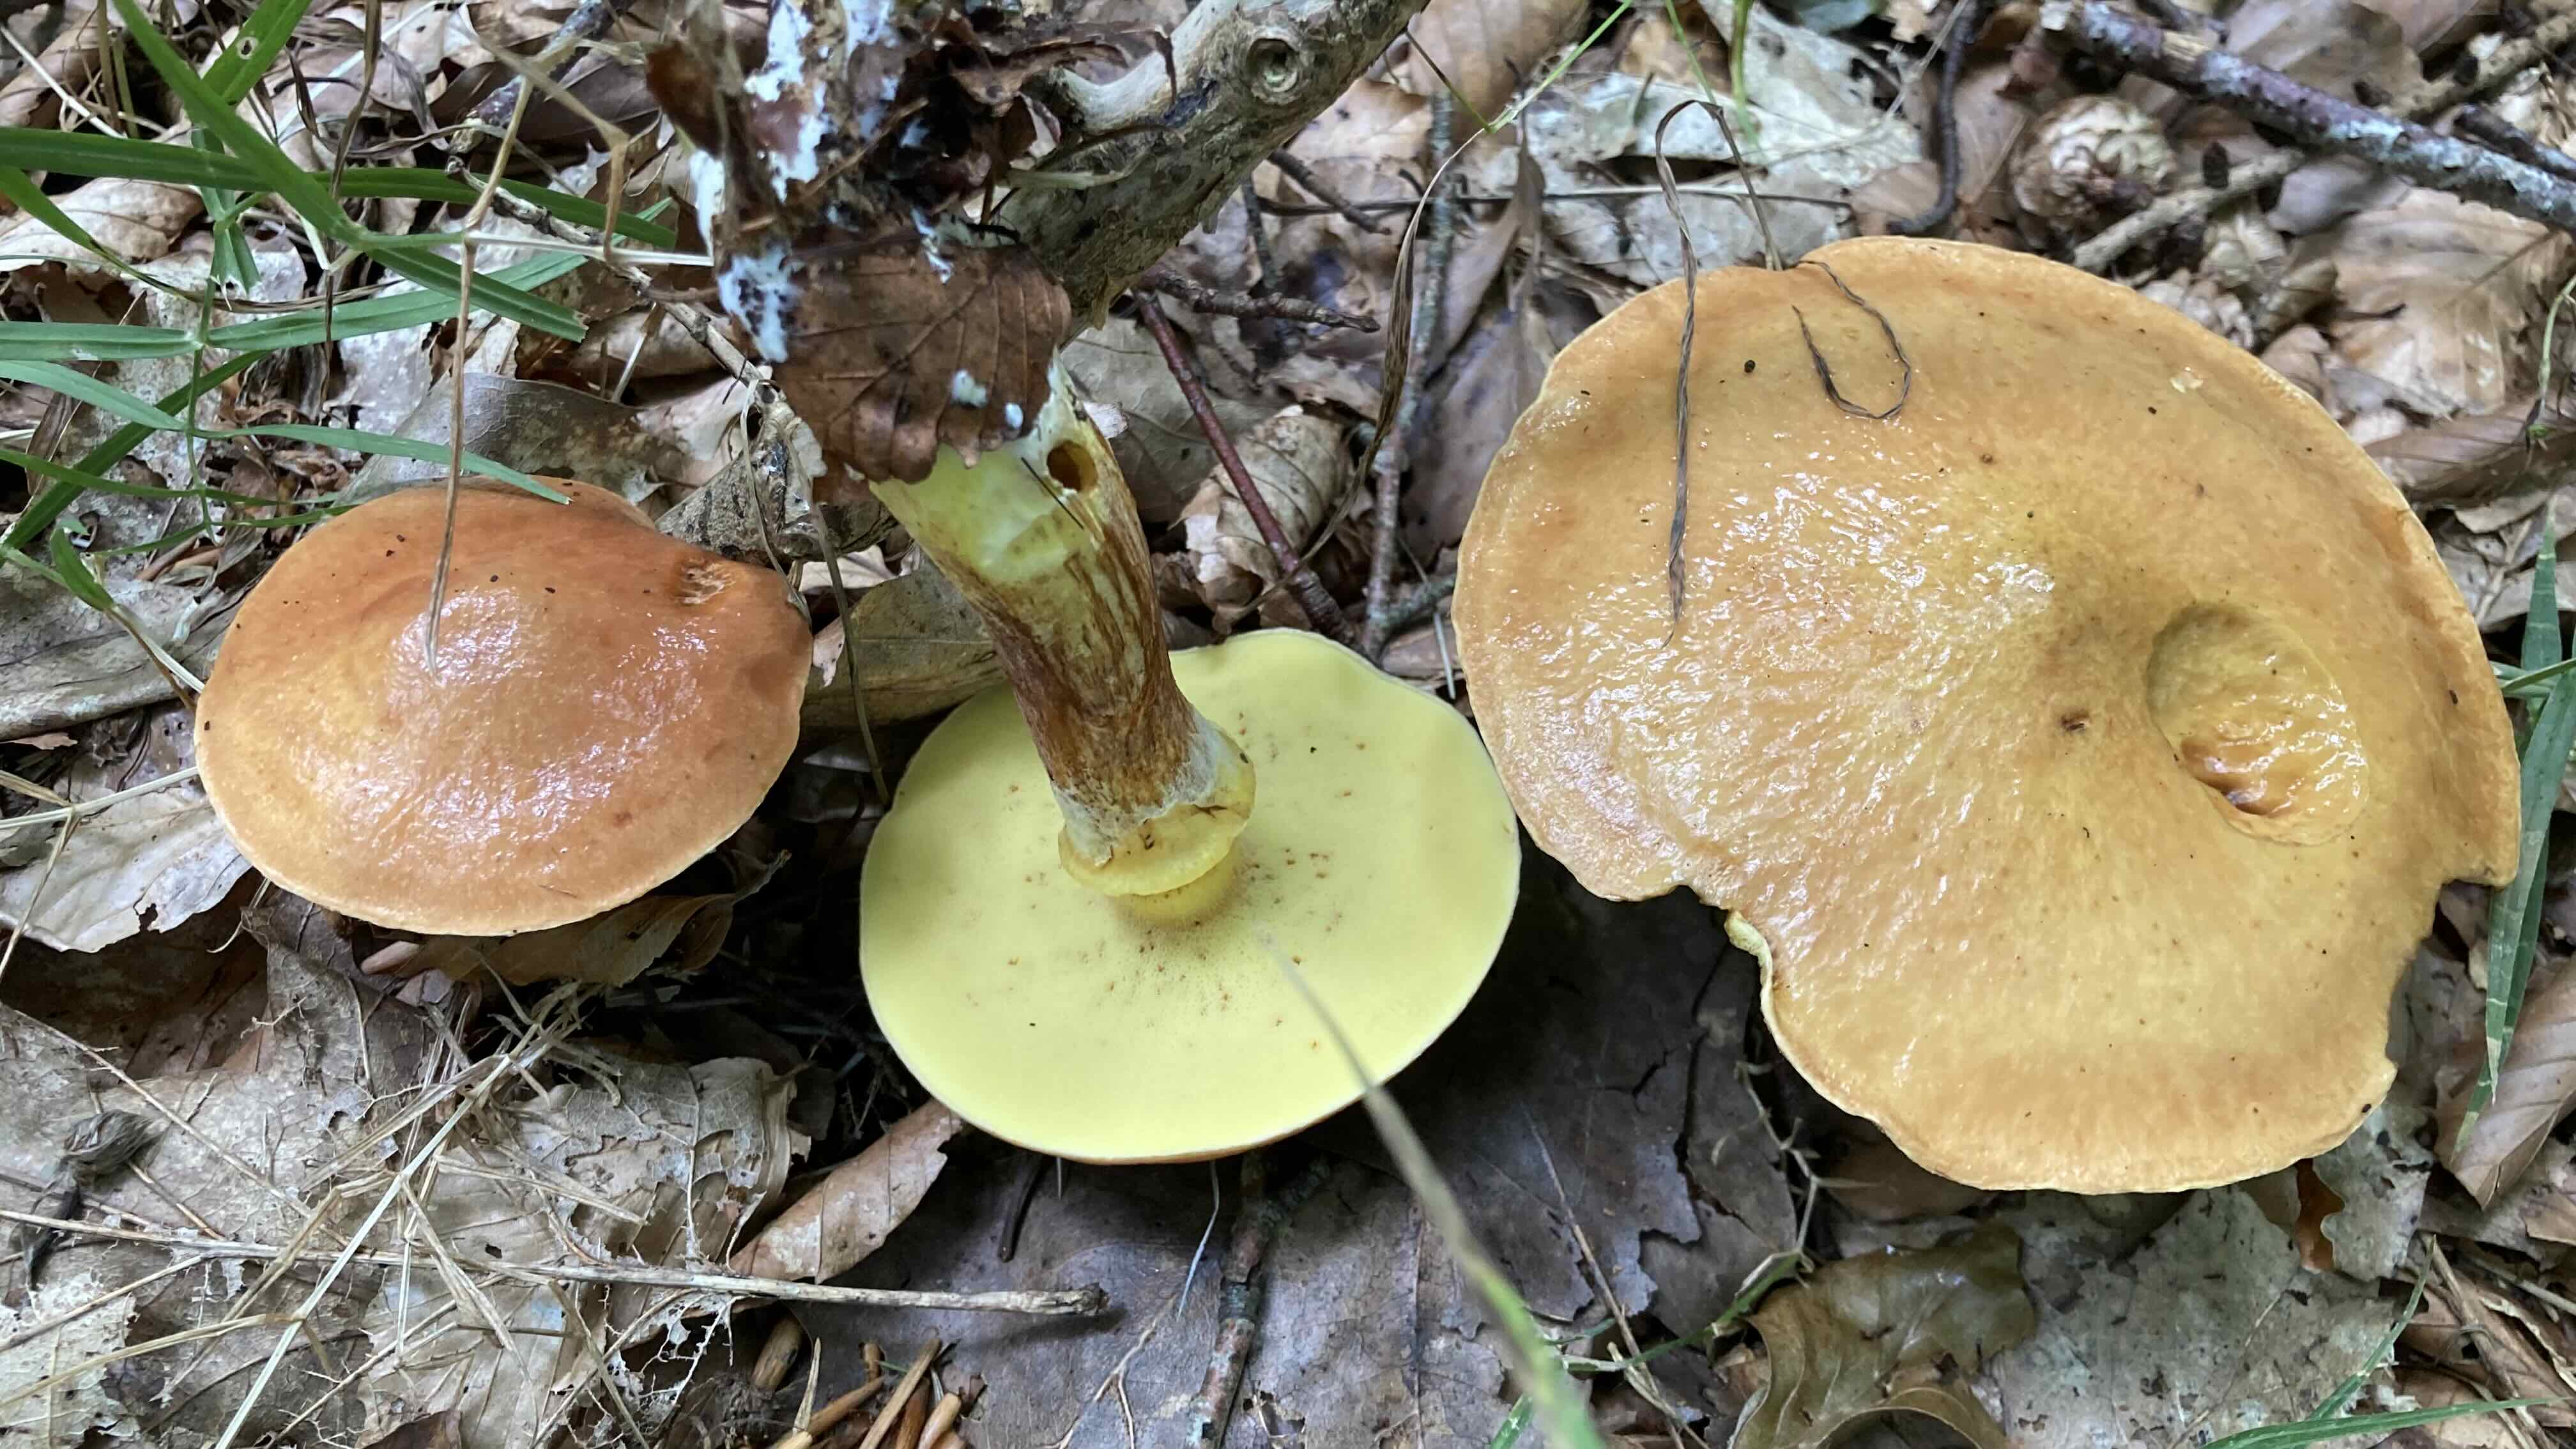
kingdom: Fungi
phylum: Basidiomycota
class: Agaricomycetes
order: Boletales
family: Suillaceae
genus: Suillus
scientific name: Suillus grevillei
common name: lærke-slimrørhat
